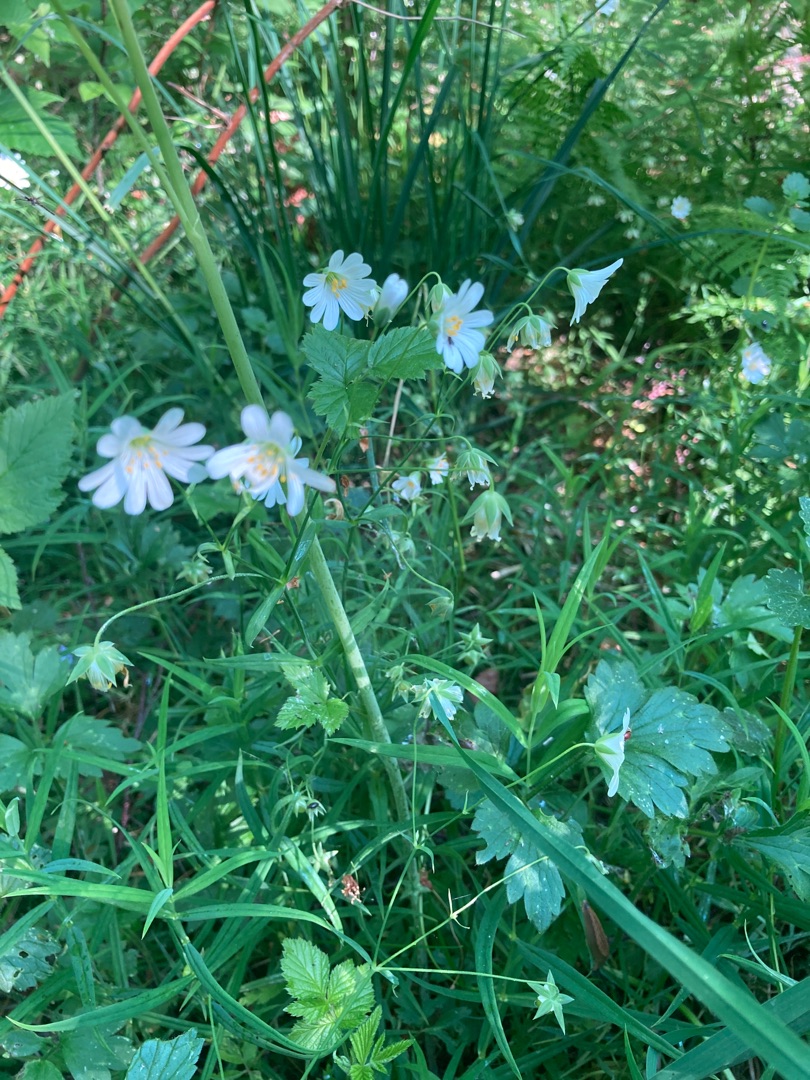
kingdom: Plantae
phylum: Tracheophyta
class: Magnoliopsida
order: Caryophyllales
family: Caryophyllaceae
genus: Rabelera
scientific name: Rabelera holostea
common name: Stor fladstjerne
